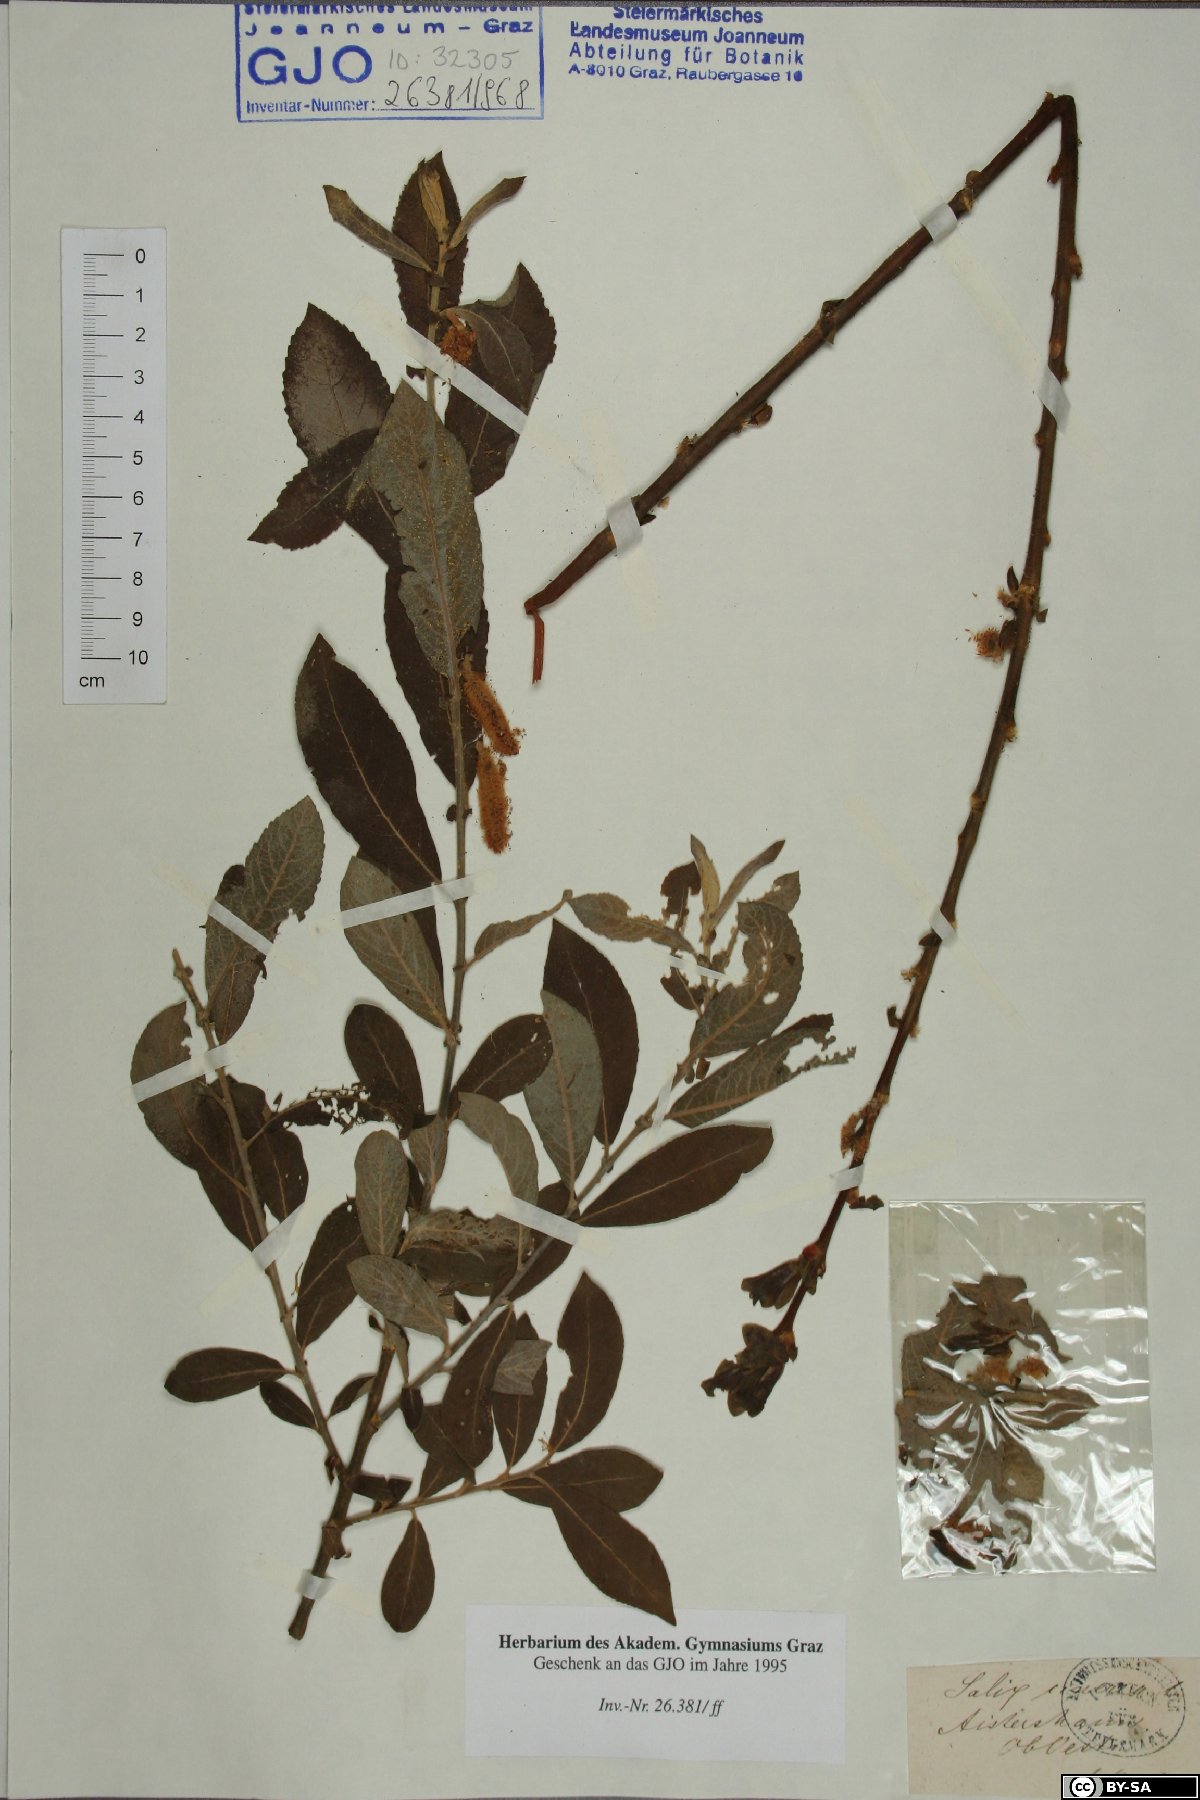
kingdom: Plantae
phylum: Tracheophyta
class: Magnoliopsida
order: Malpighiales
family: Salicaceae
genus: Salix
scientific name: Salix cinerea
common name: Common sallow
